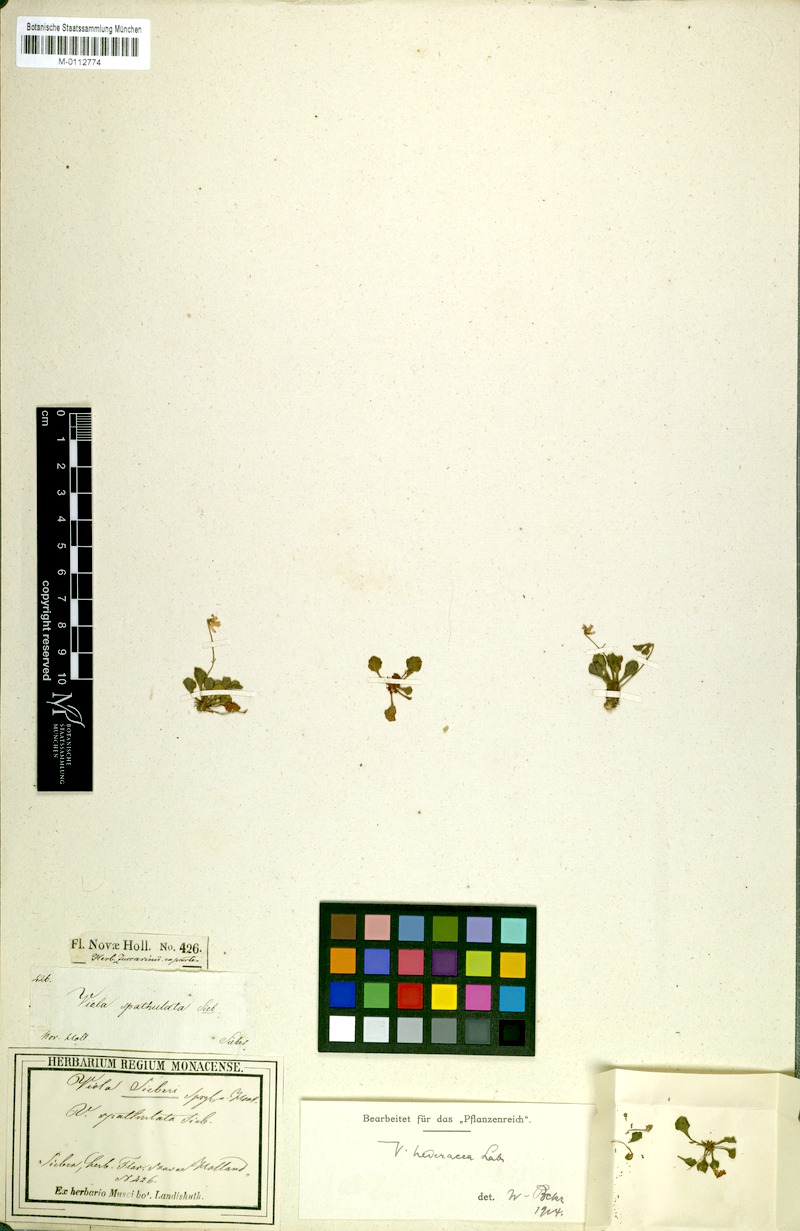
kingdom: Plantae
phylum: Tracheophyta
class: Magnoliopsida
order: Malpighiales
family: Violaceae
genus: Viola
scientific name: Viola hederacea
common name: Australian violet
